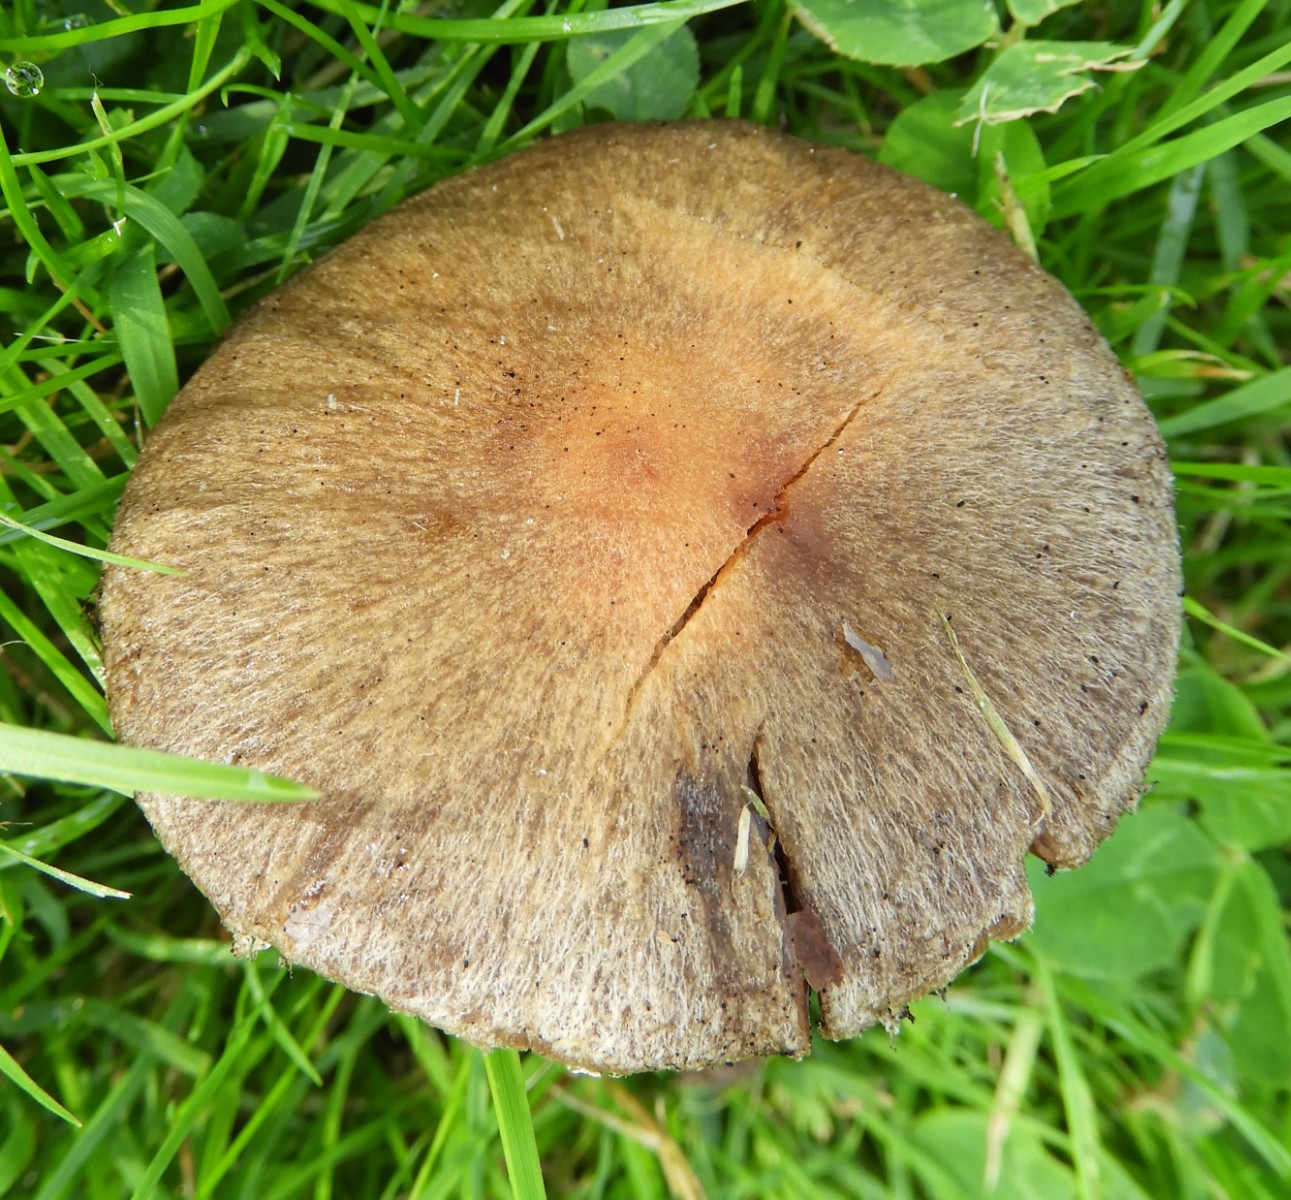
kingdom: Fungi
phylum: Basidiomycota
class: Agaricomycetes
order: Agaricales
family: Psathyrellaceae
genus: Lacrymaria
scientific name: Lacrymaria lacrymabunda
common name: grædende mørkhat
